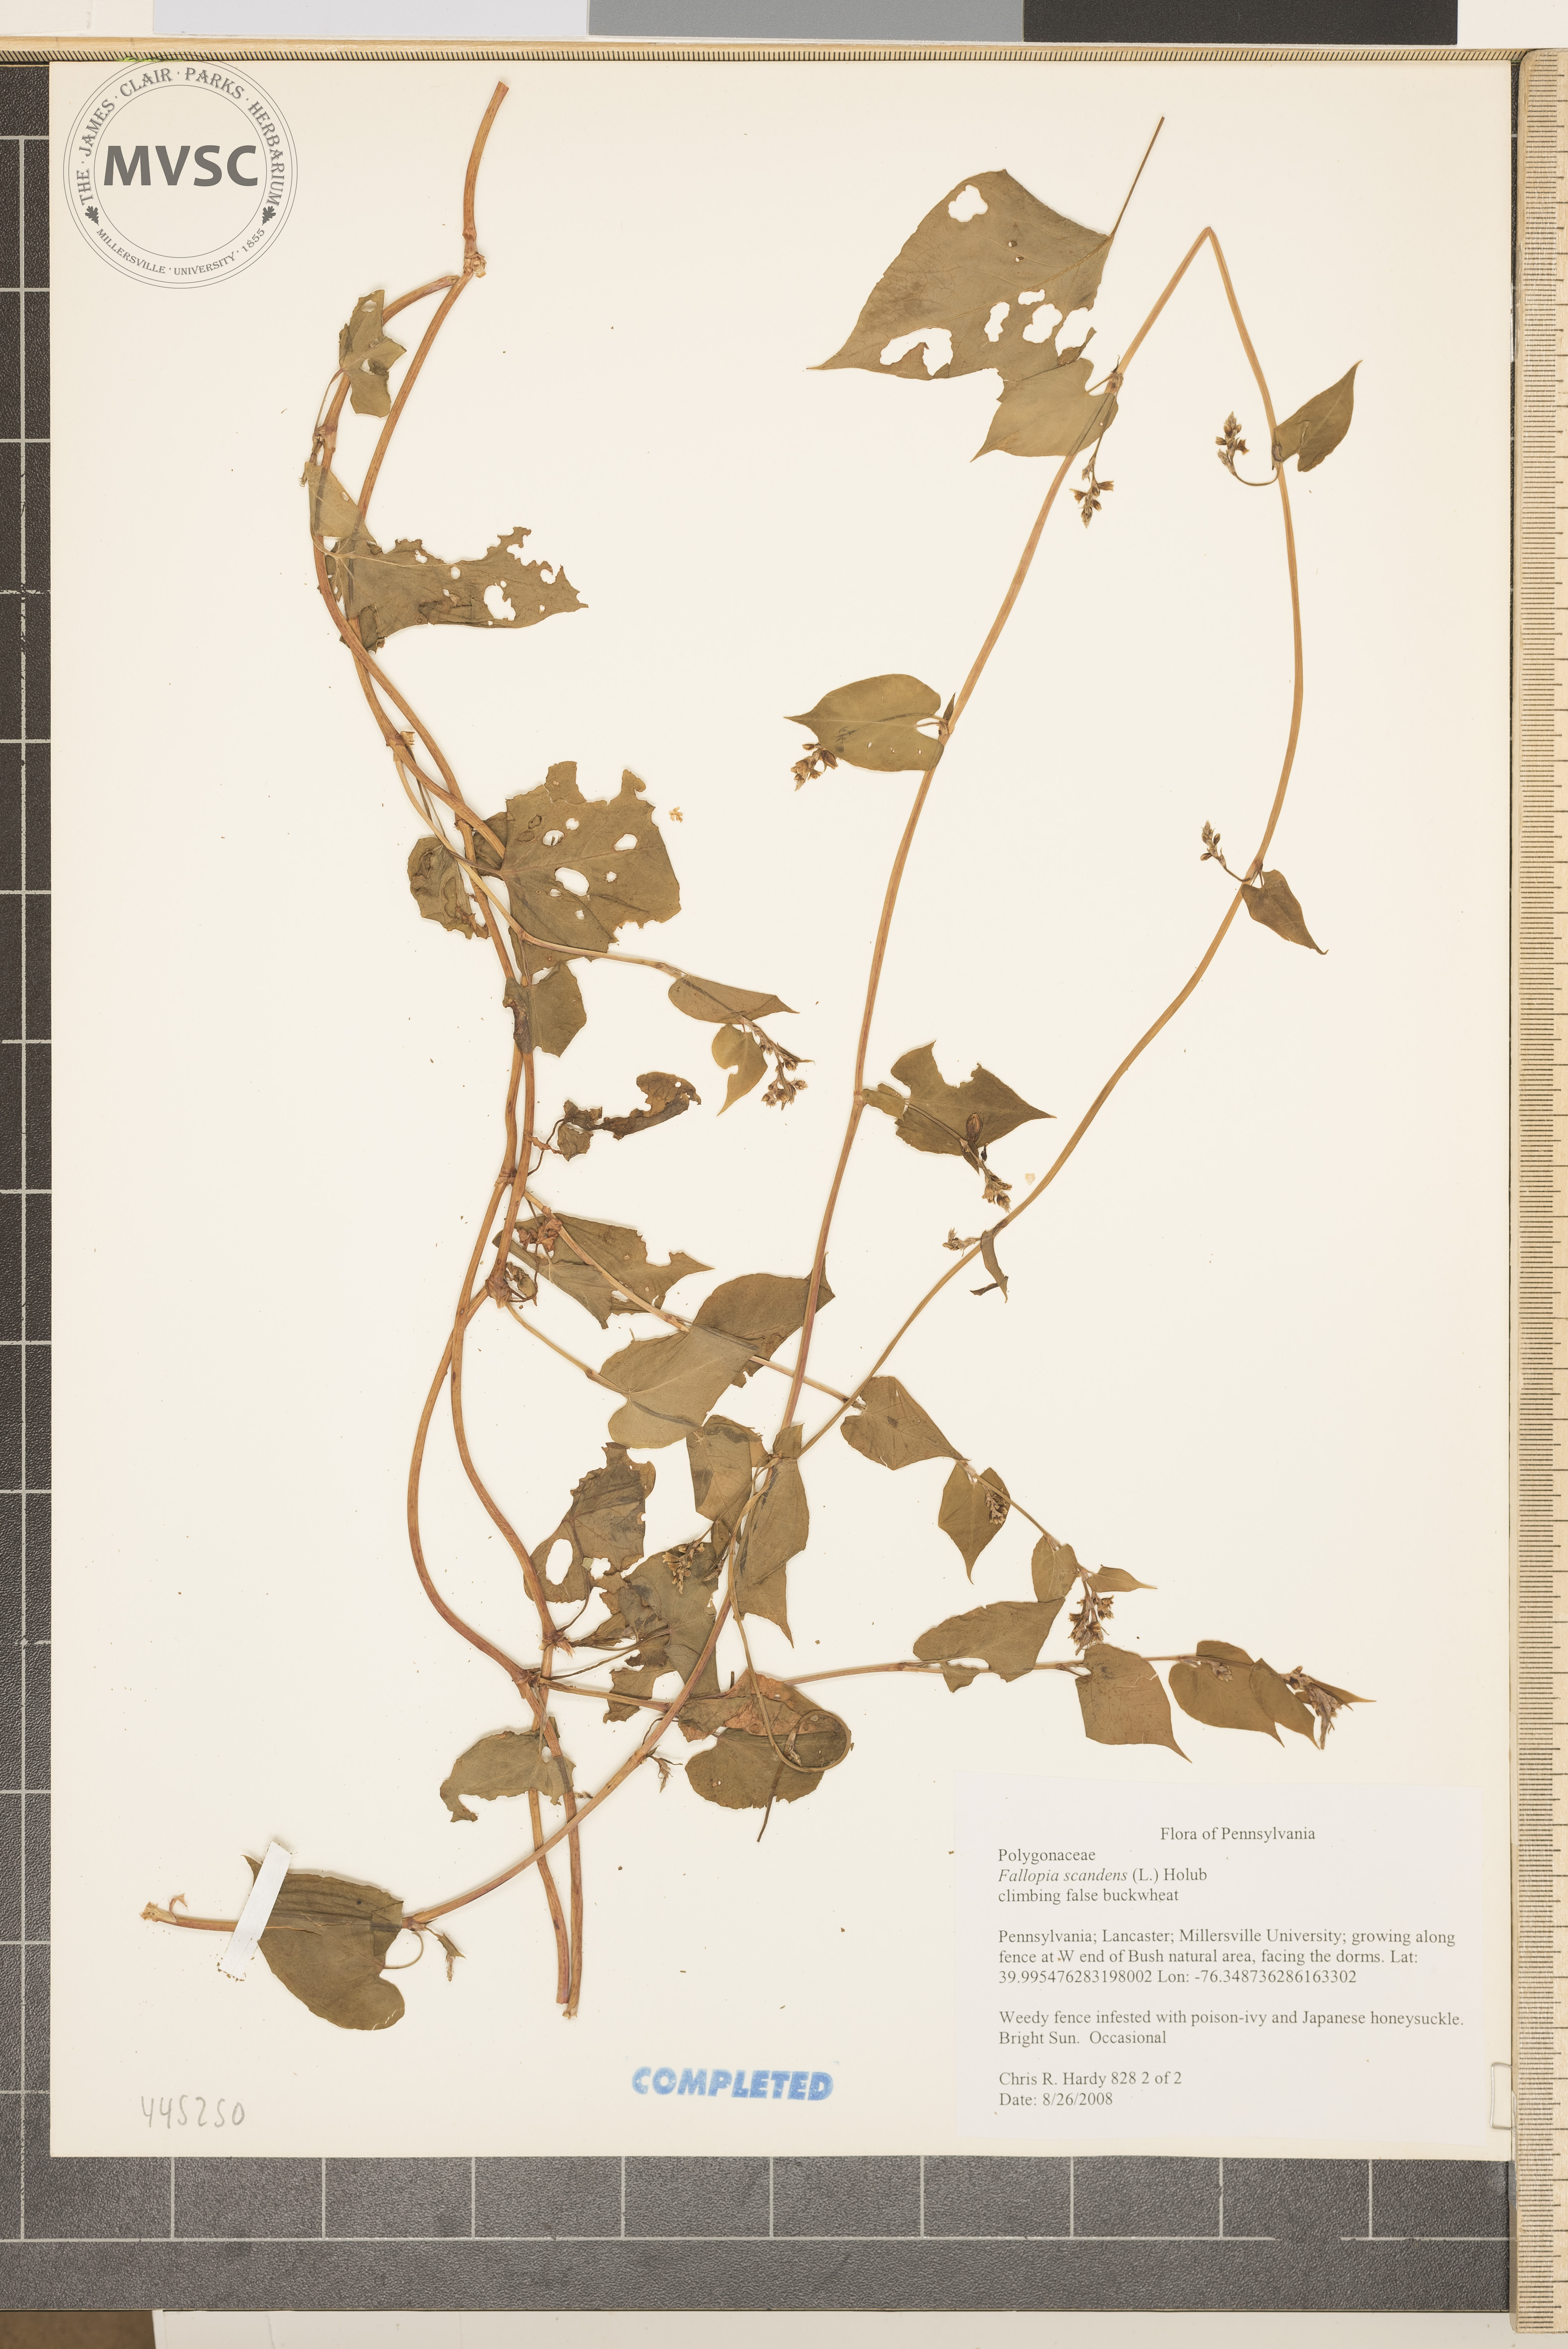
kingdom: Plantae
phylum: Tracheophyta
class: Magnoliopsida
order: Caryophyllales
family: Polygonaceae
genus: Fallopia
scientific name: Fallopia scandens
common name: climbing false buckwheat
